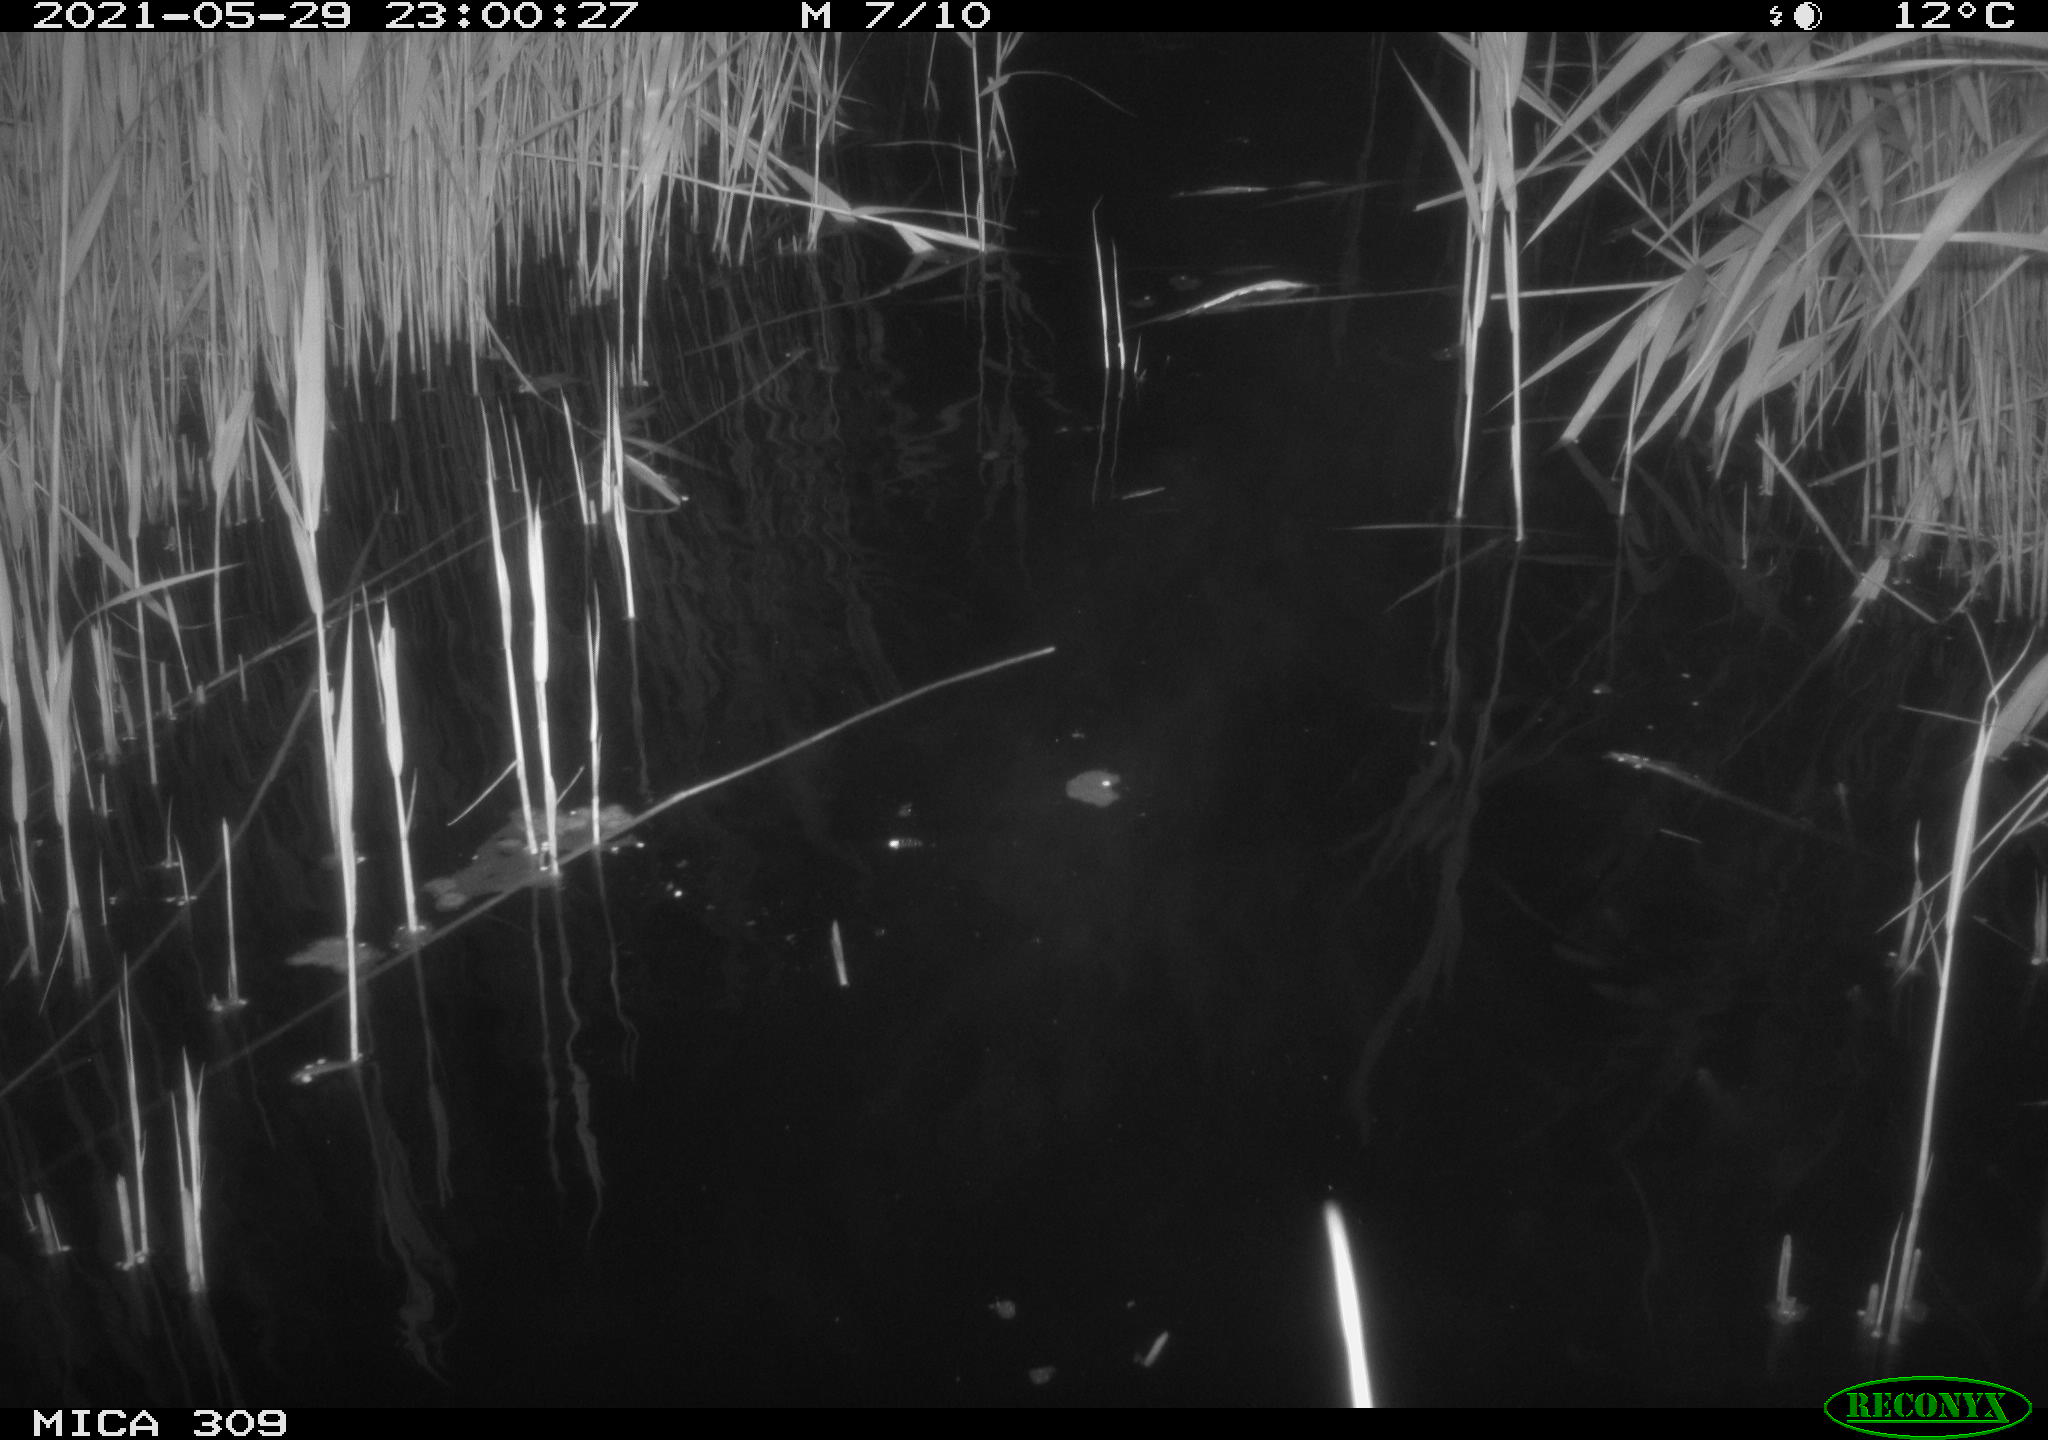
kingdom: Animalia
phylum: Chordata
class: Mammalia
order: Rodentia
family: Cricetidae
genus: Ondatra
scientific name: Ondatra zibethicus
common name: Muskrat
